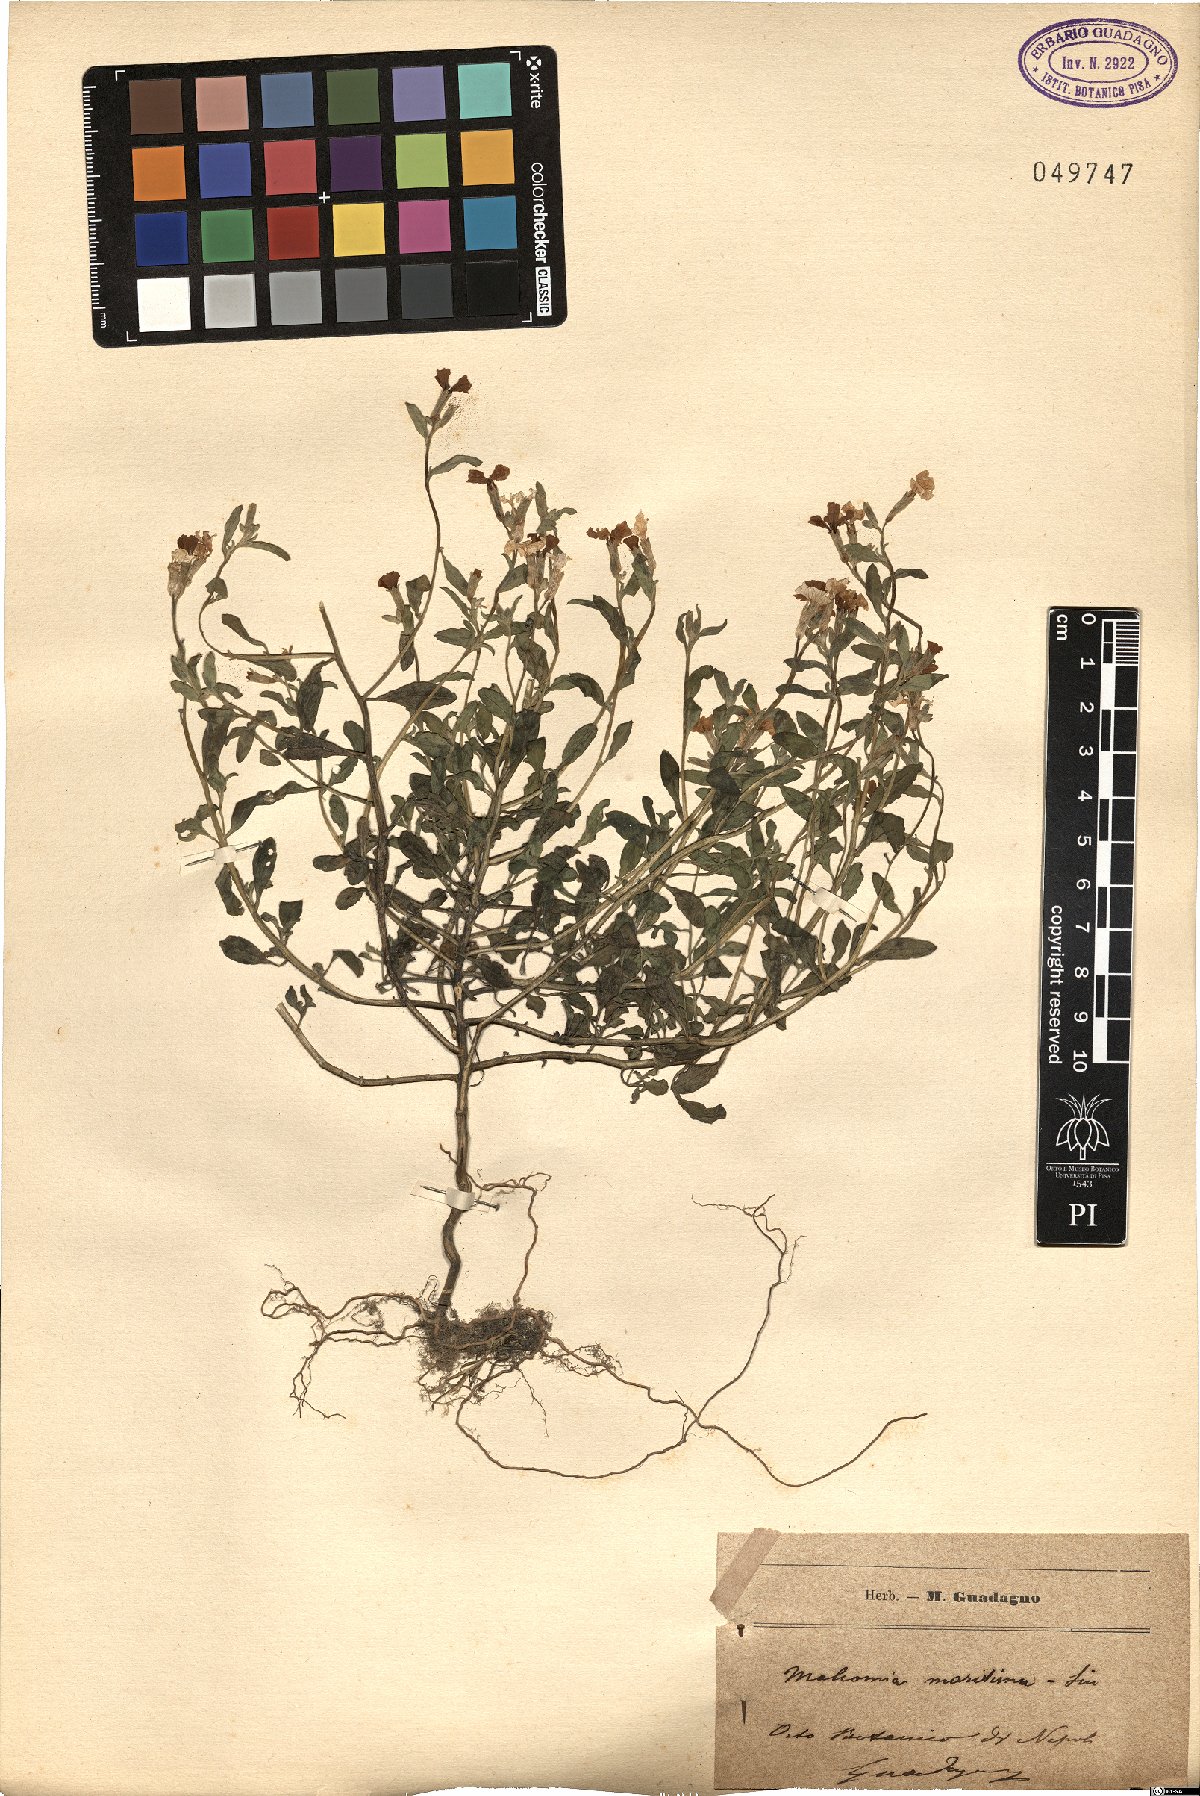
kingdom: Plantae
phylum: Tracheophyta
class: Magnoliopsida
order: Brassicales
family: Brassicaceae
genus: Malcolmia
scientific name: Malcolmia maritima
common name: Virginia stock
